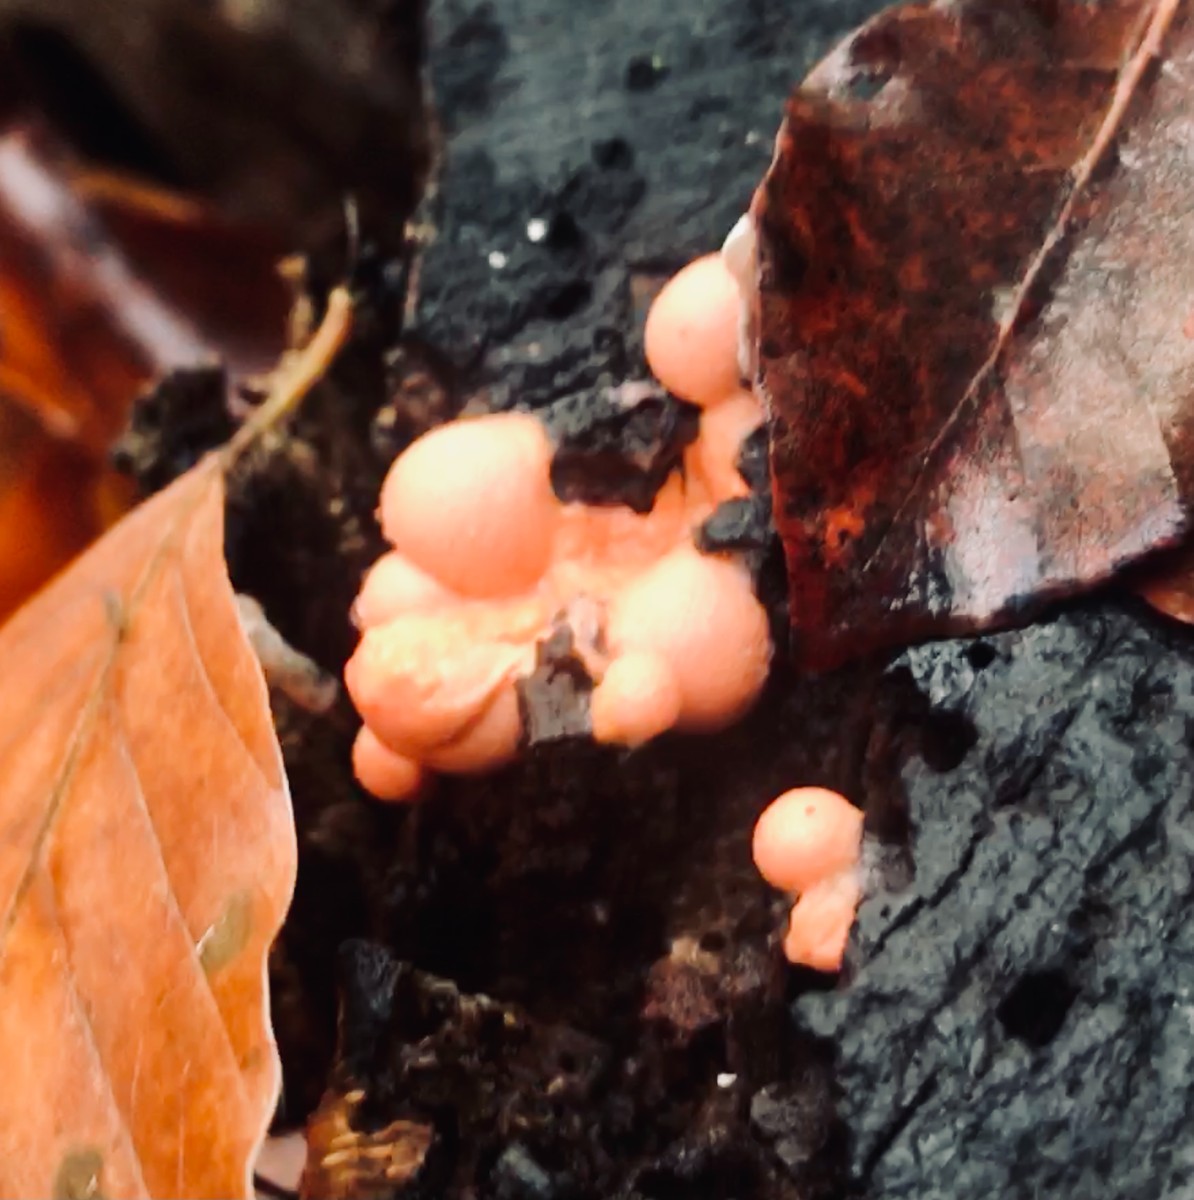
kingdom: Protozoa
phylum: Mycetozoa
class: Myxomycetes
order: Cribrariales
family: Tubiferaceae
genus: Lycogala
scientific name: Lycogala epidendrum
